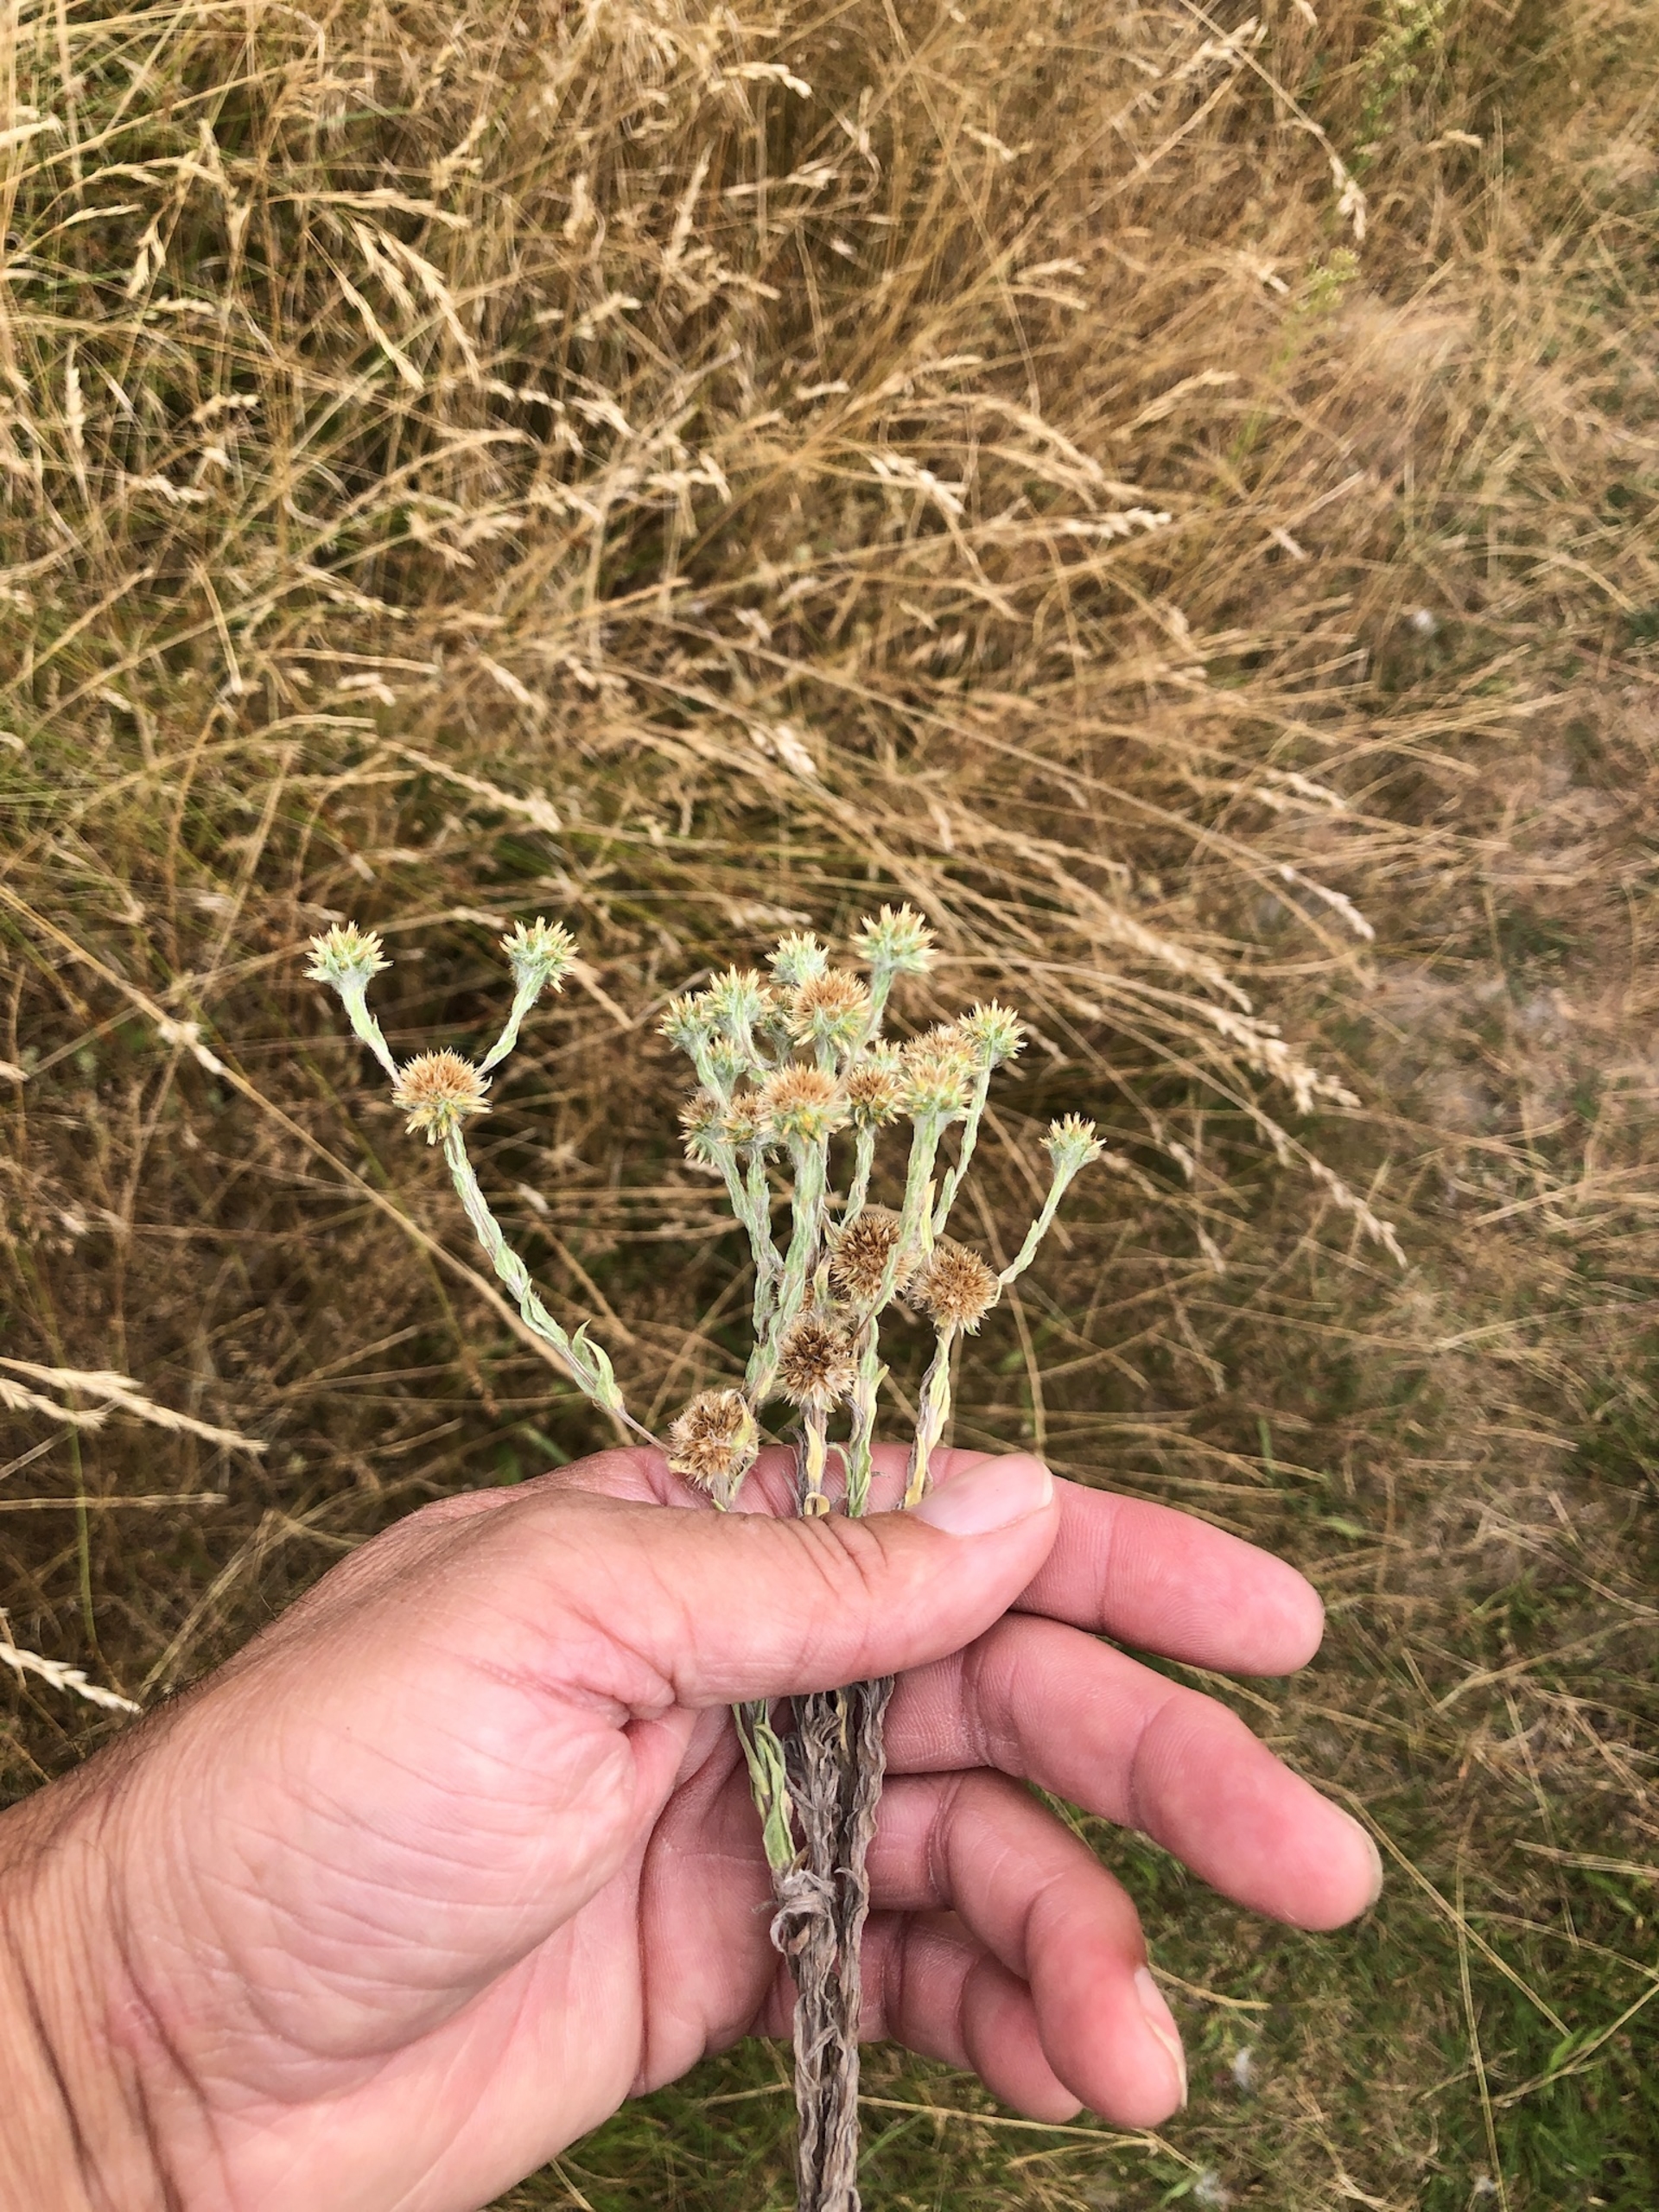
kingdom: Plantae
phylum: Tracheophyta
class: Magnoliopsida
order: Asterales
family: Asteraceae
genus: Filago
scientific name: Filago germanica
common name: Kugle-museurt
